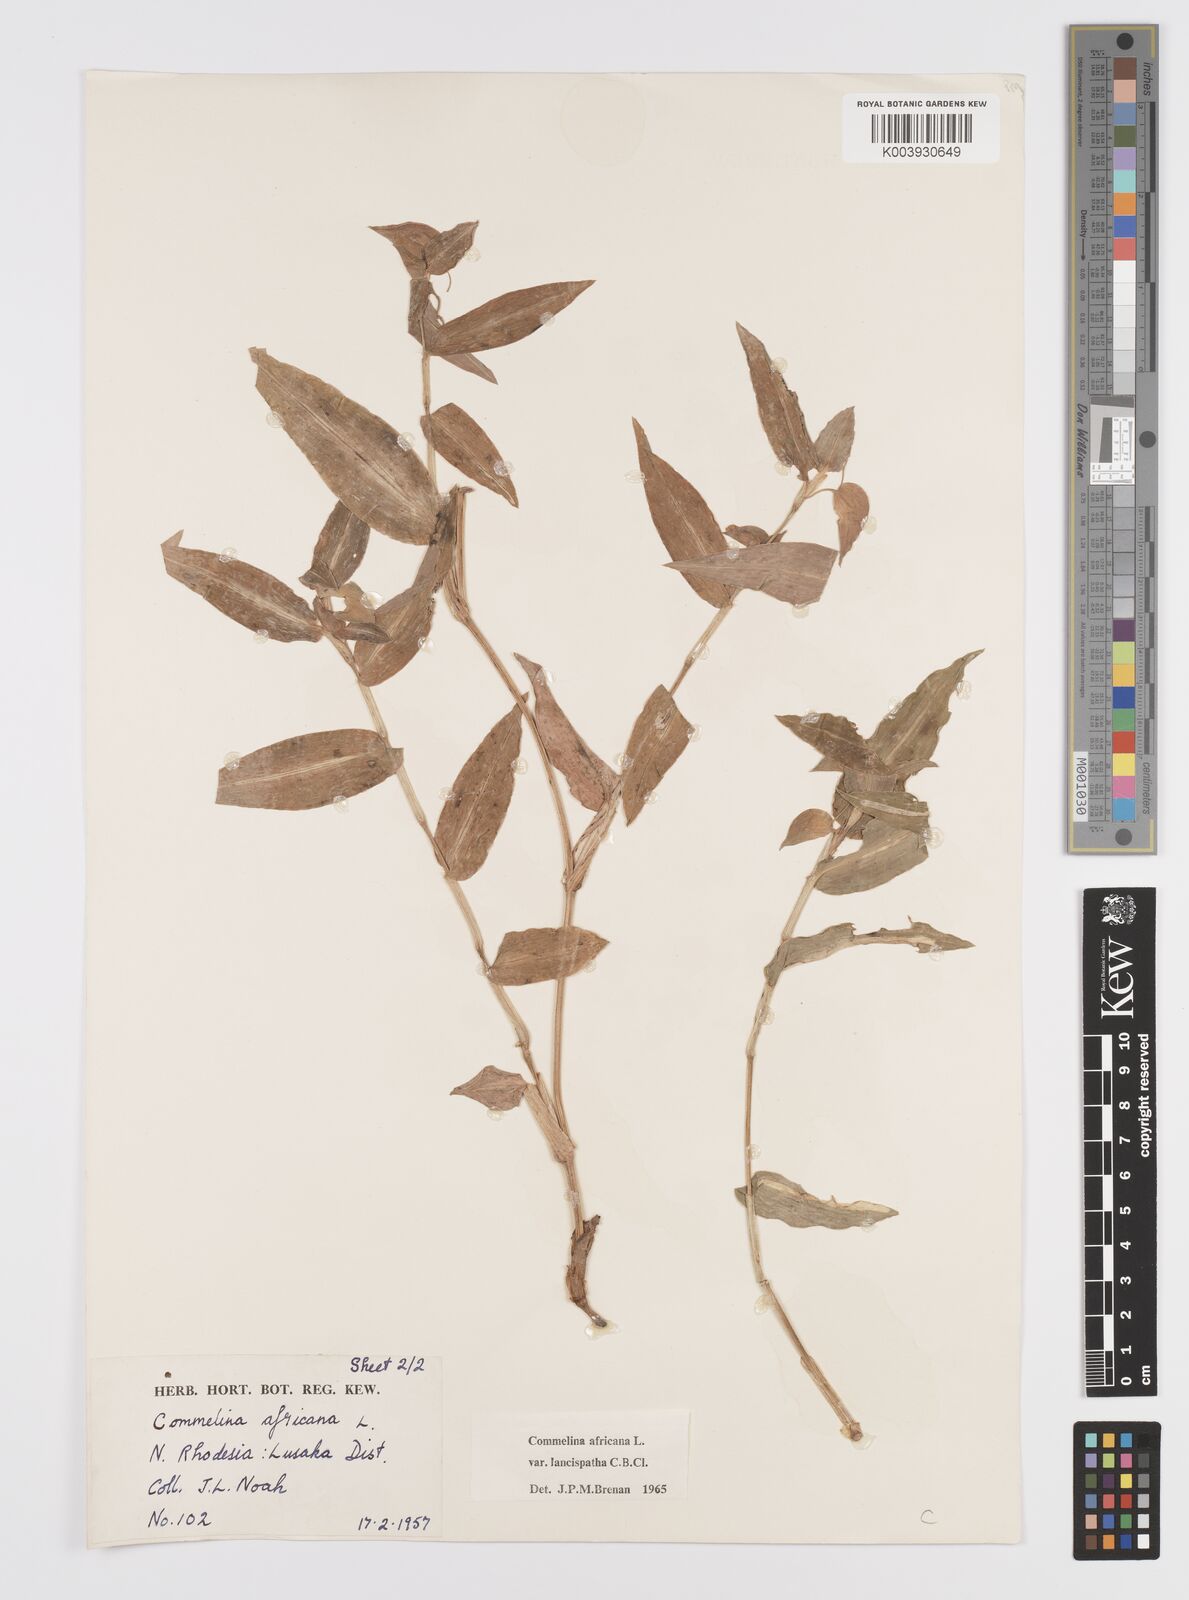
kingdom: Plantae
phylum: Tracheophyta
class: Liliopsida
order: Commelinales
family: Commelinaceae
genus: Commelina
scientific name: Commelina africana
